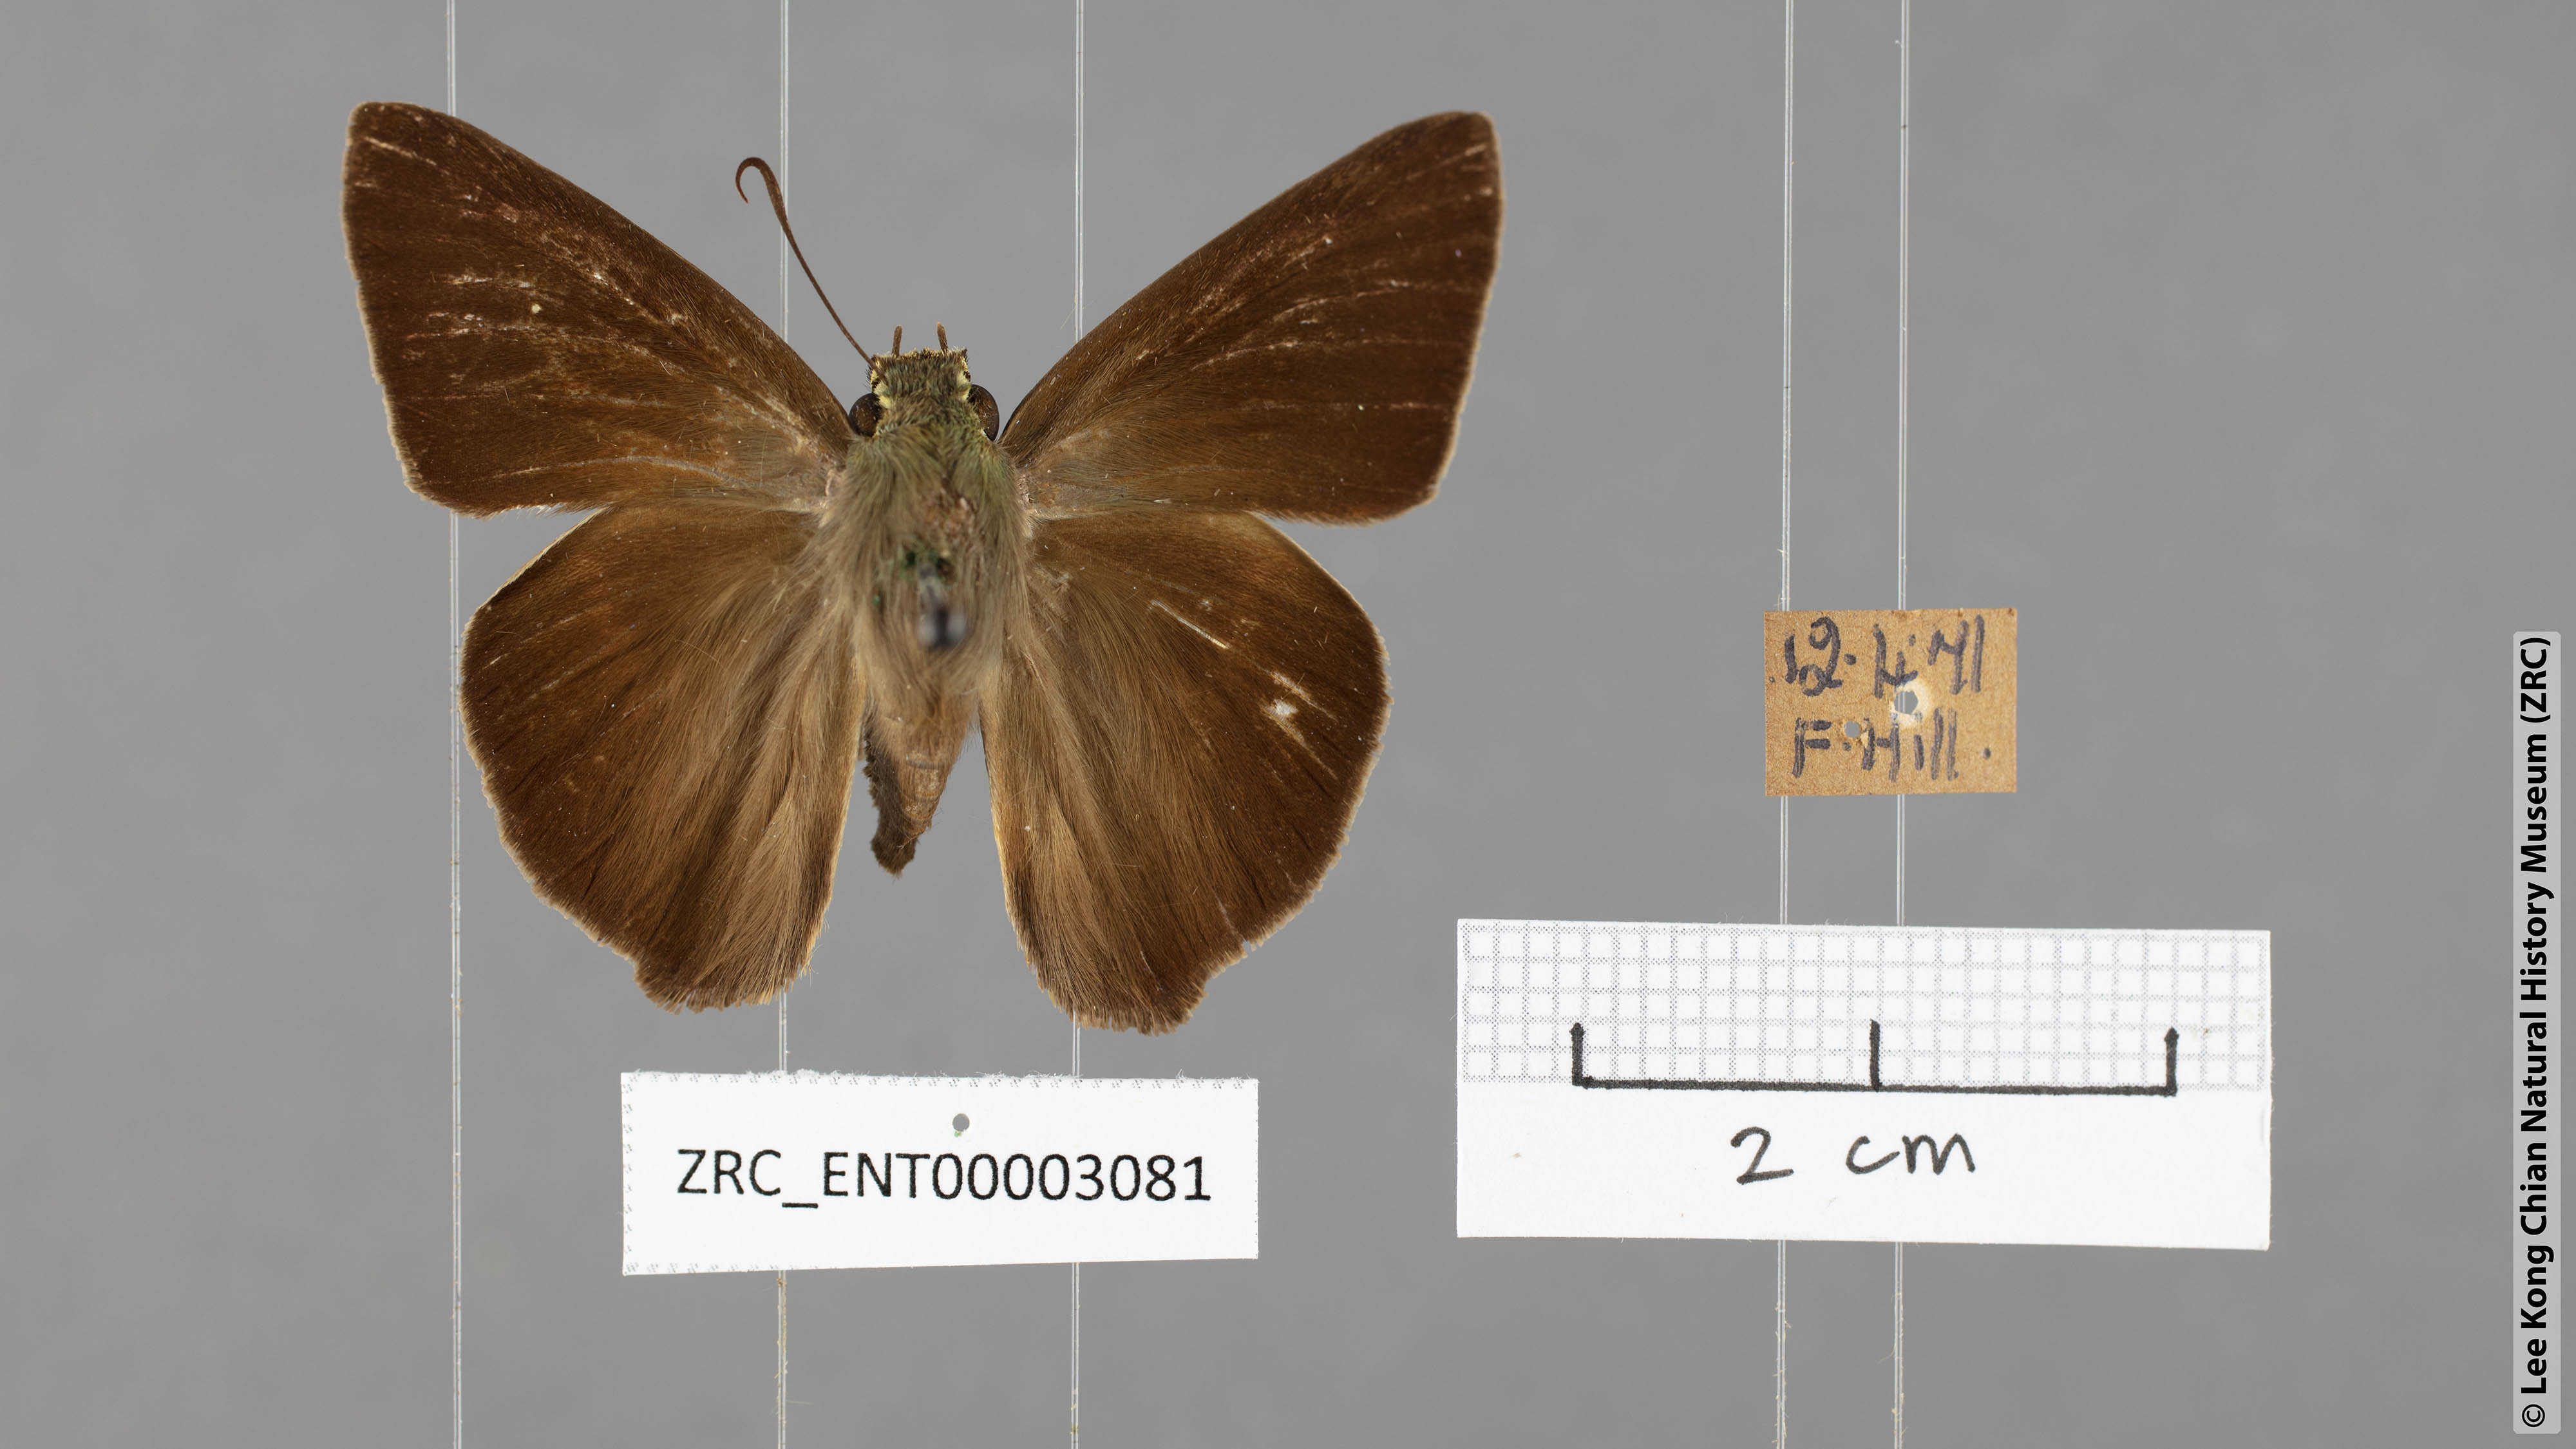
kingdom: Animalia
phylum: Arthropoda
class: Insecta
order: Lepidoptera
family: Hesperiidae
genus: Hasora
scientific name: Hasora taminatus
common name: White banded awl
